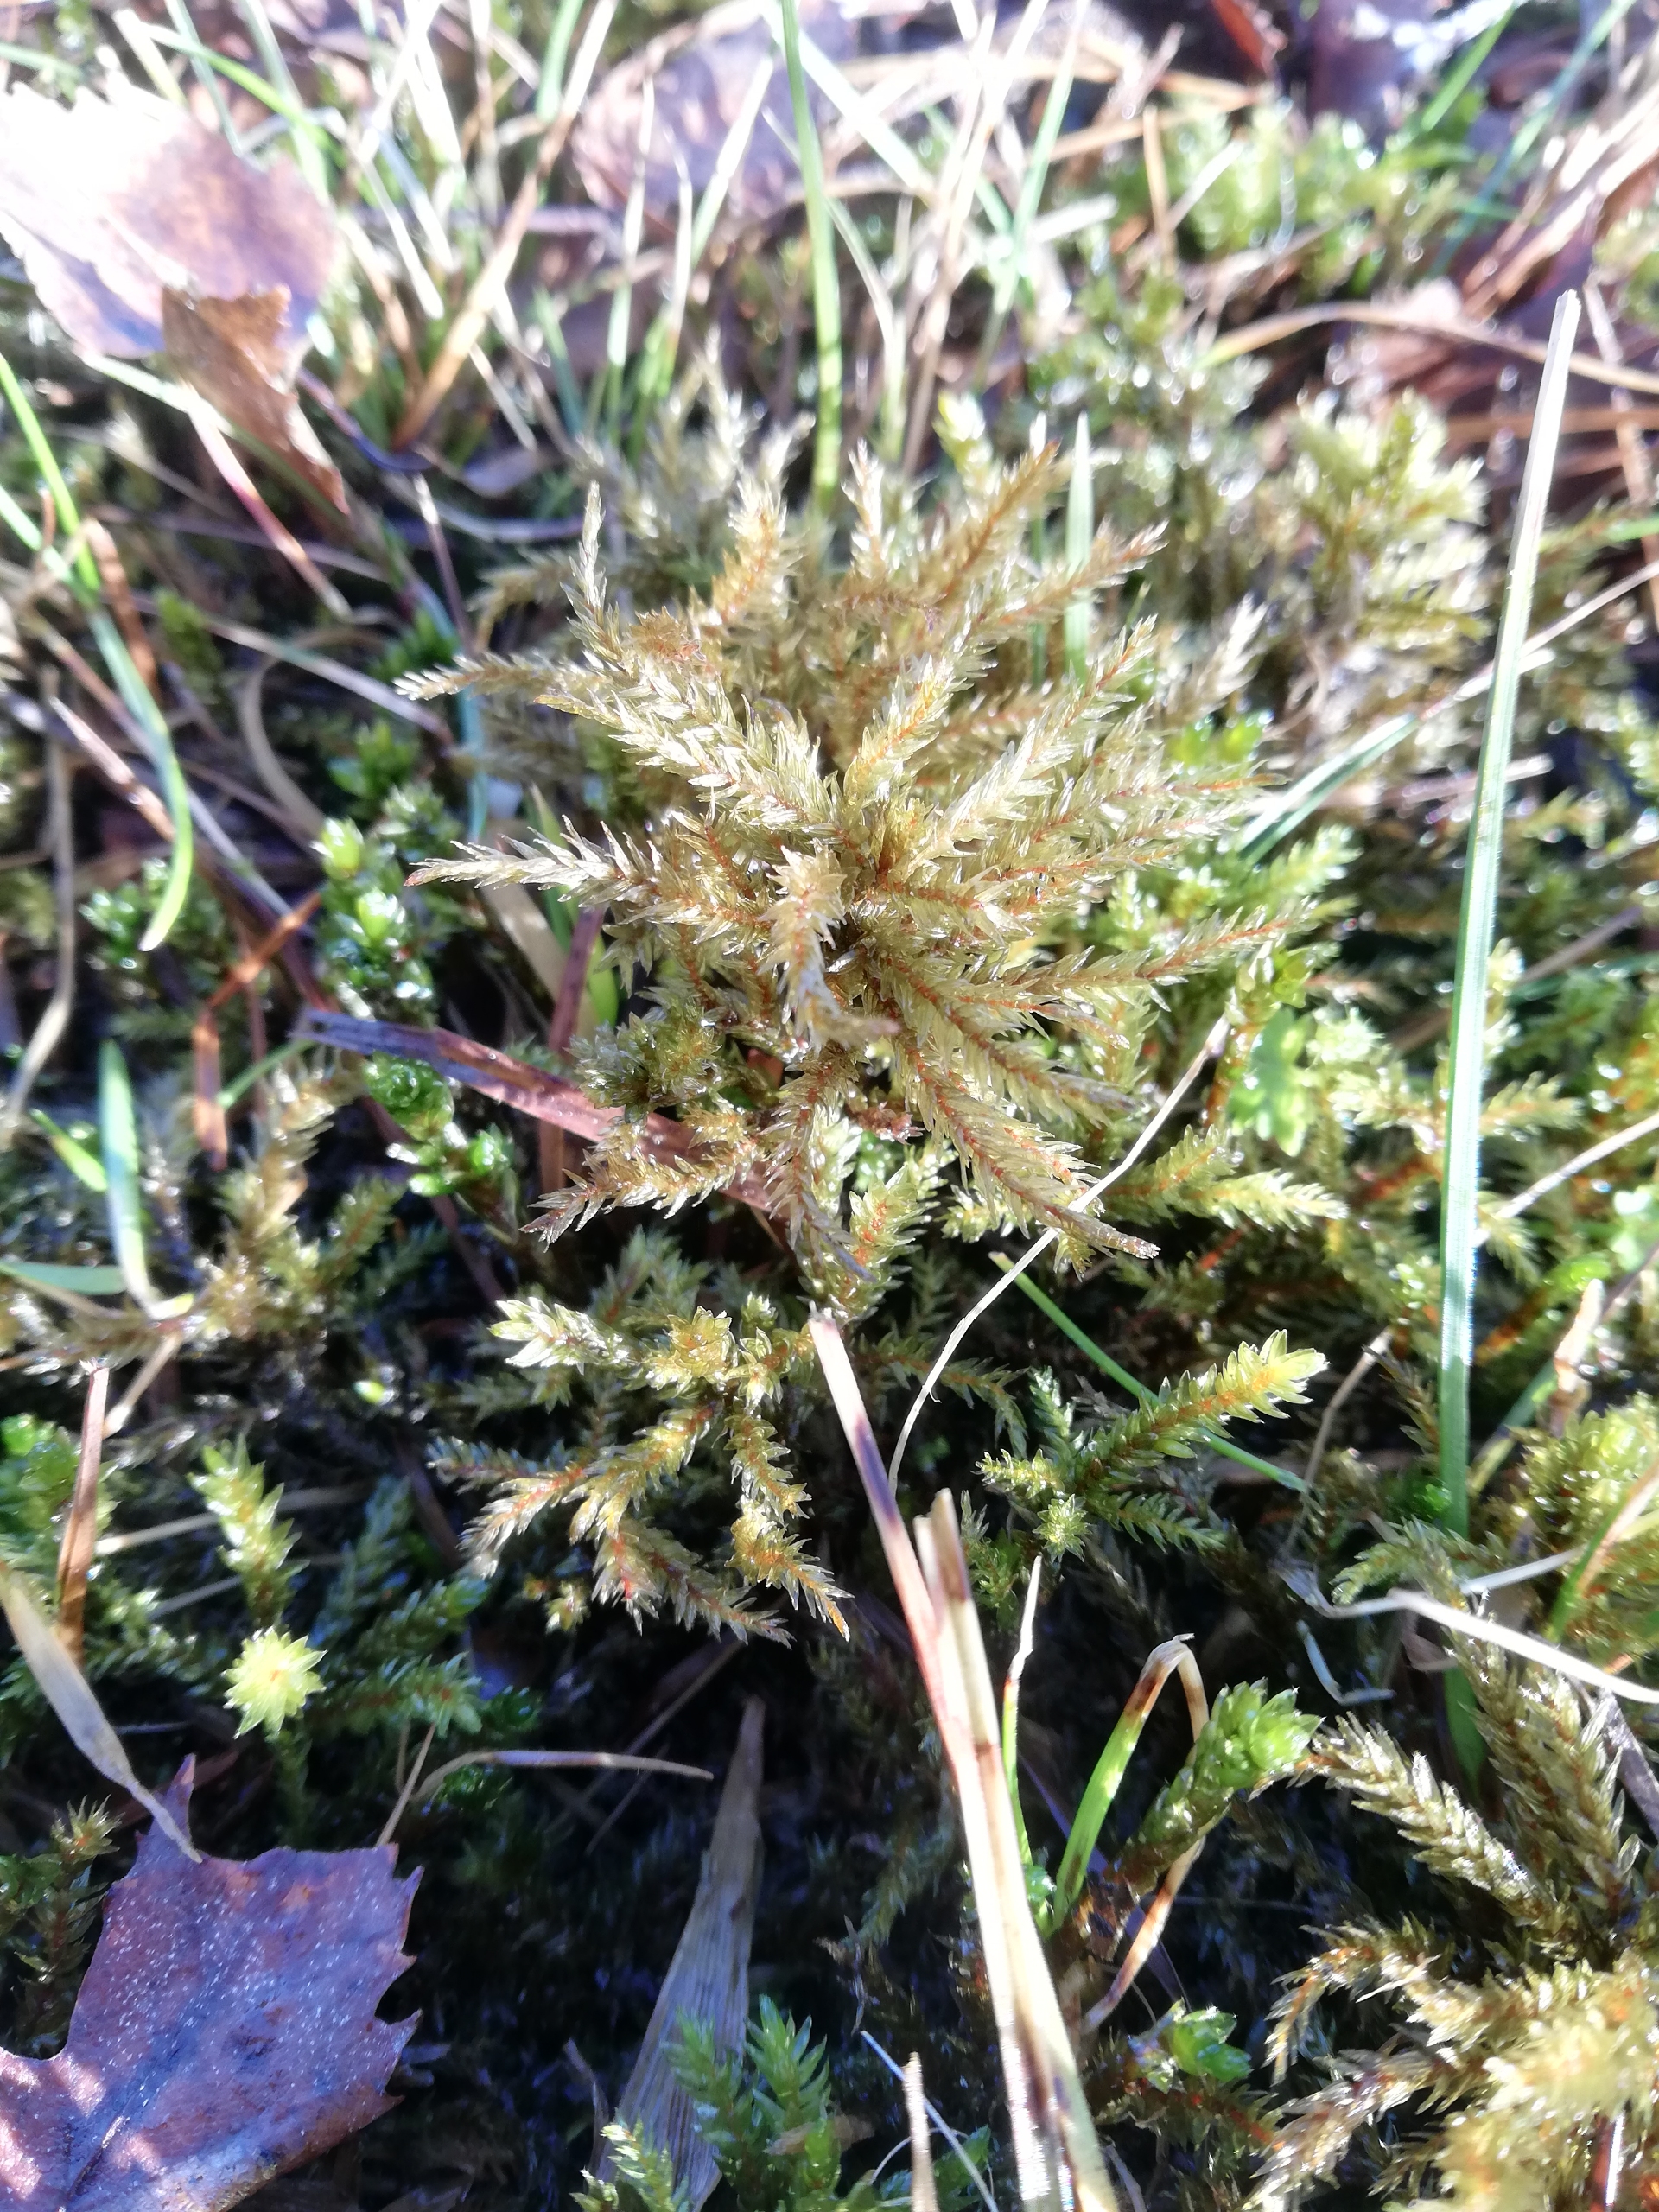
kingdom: Plantae
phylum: Bryophyta
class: Bryopsida
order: Hypnales
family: Climaciaceae
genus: Climacium
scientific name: Climacium dendroides
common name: Stor engkost
